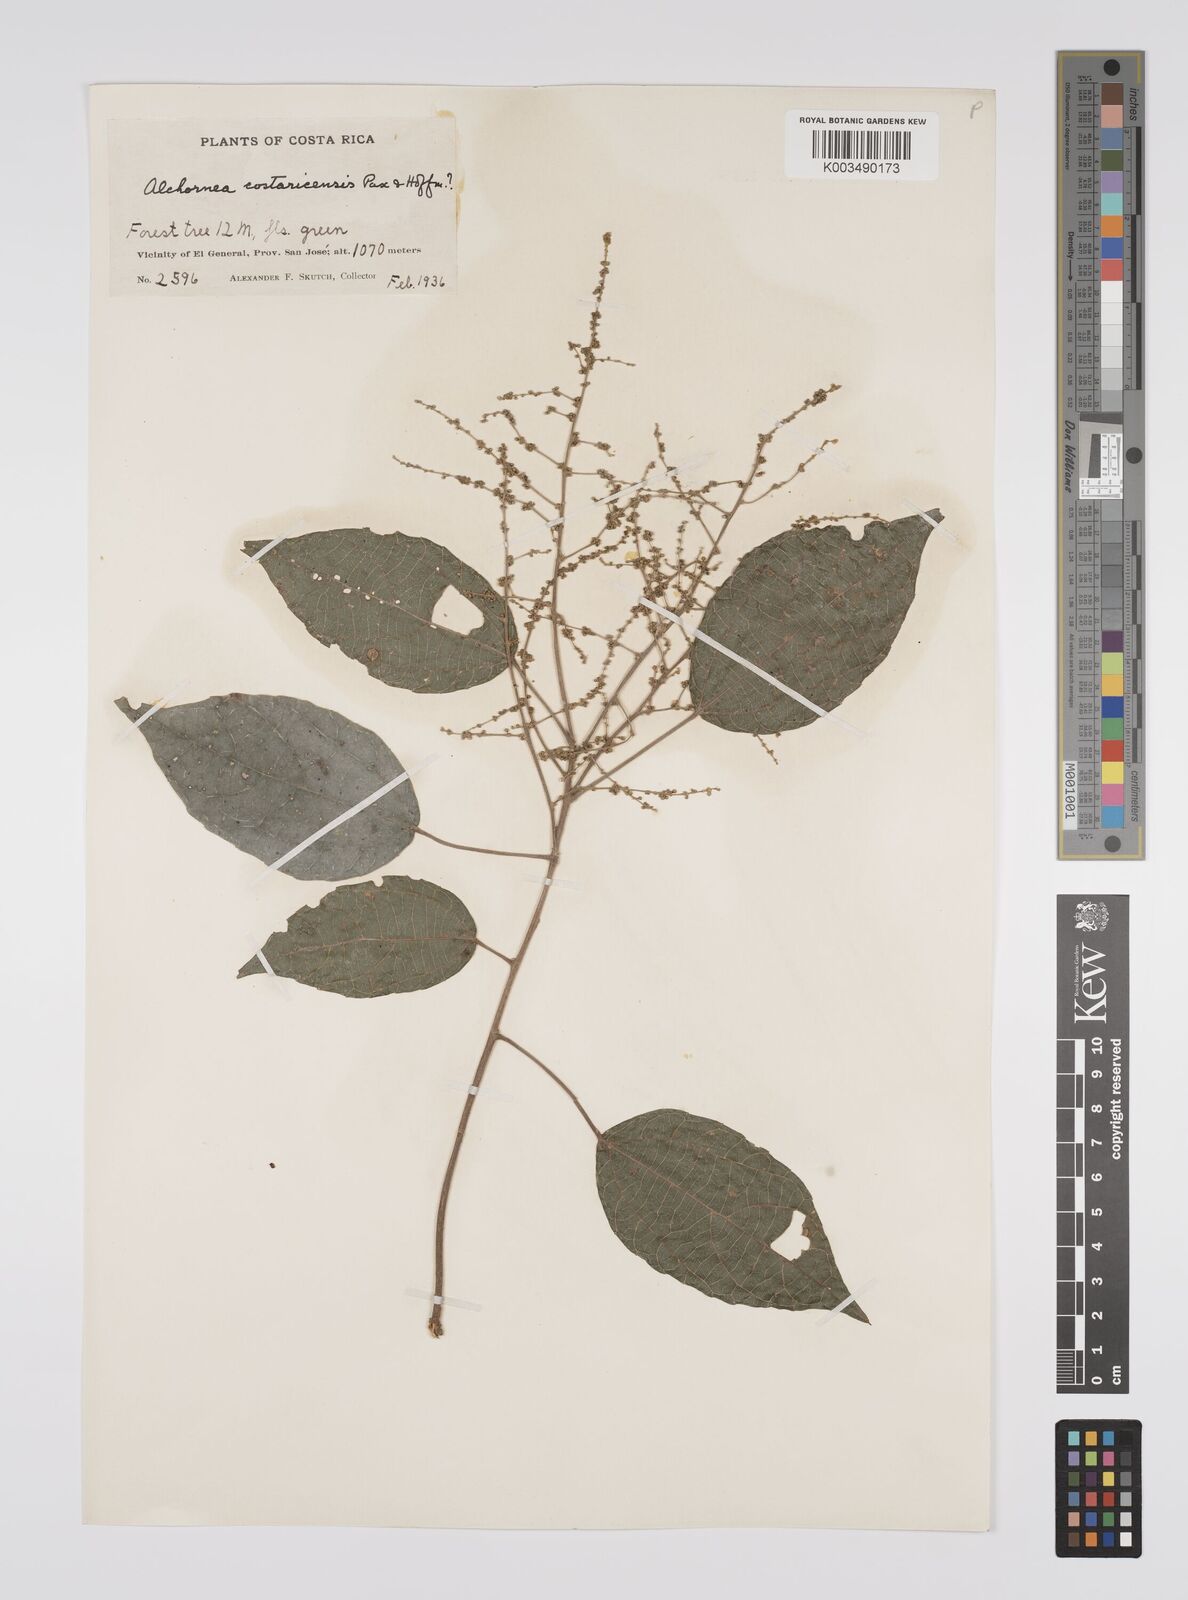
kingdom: Plantae
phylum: Tracheophyta
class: Magnoliopsida
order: Malpighiales
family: Euphorbiaceae
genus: Alchornea
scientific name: Alchornea costaricensis
